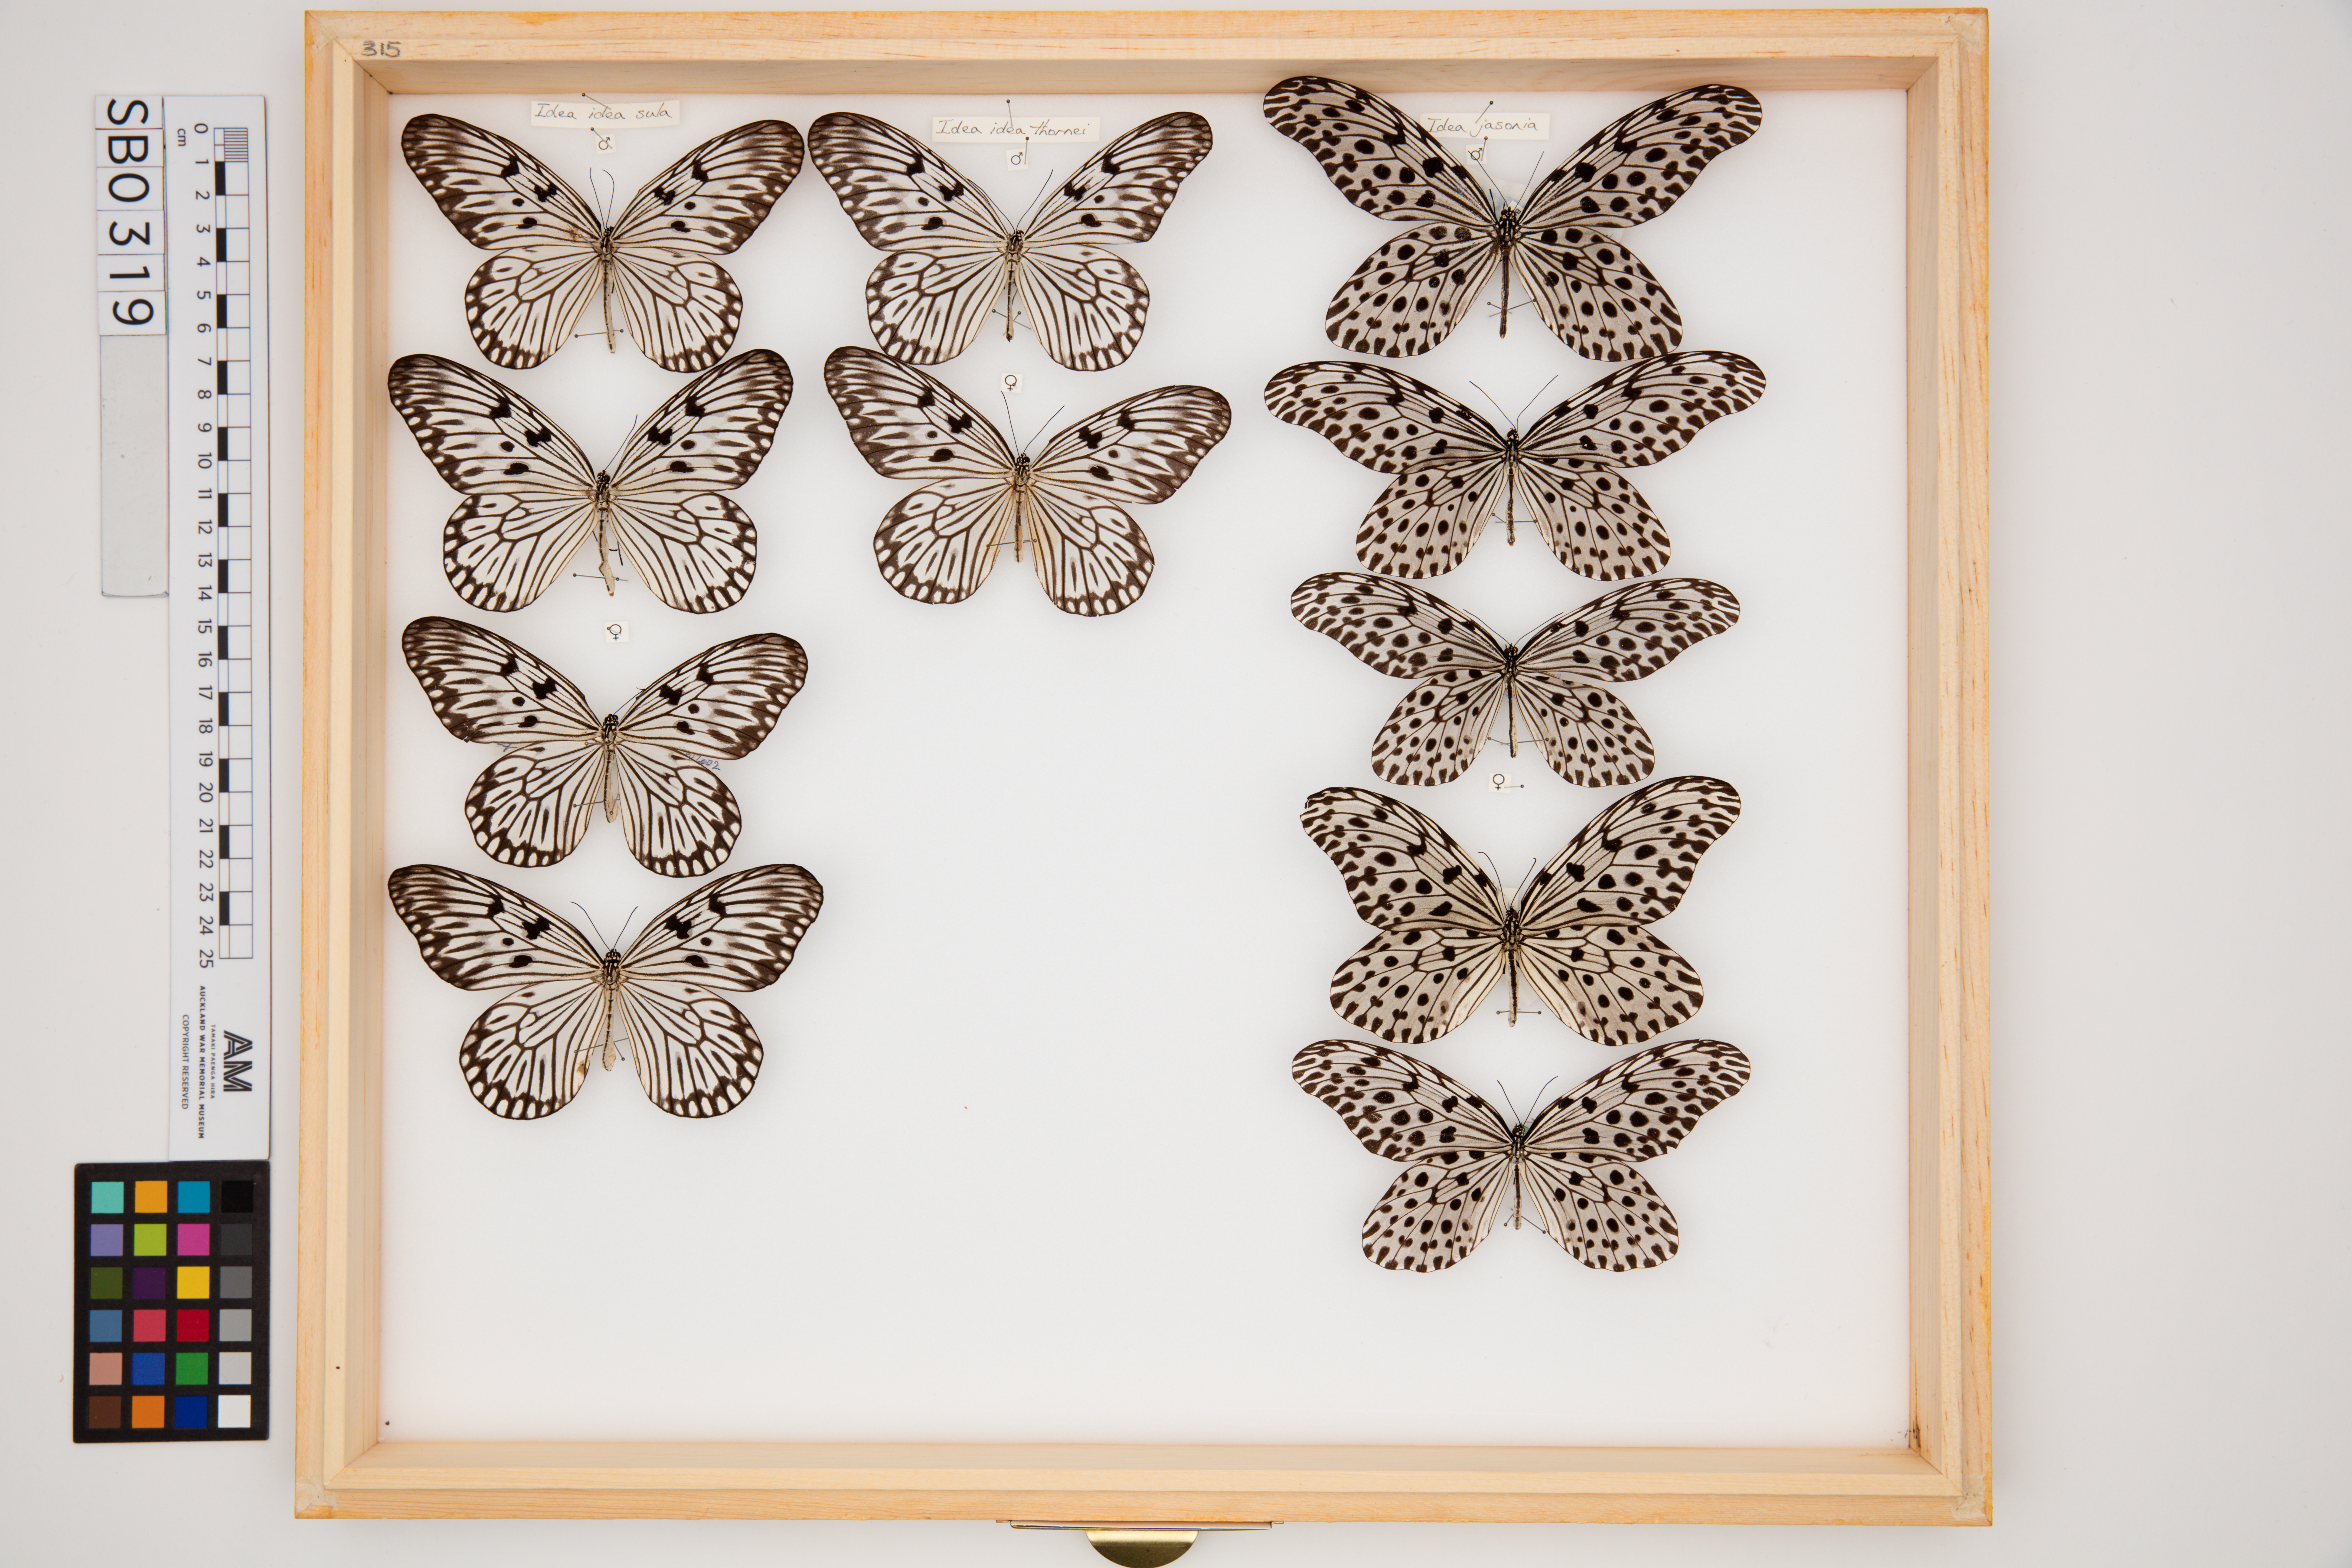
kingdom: Animalia
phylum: Arthropoda
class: Insecta
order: Lepidoptera
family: Nymphalidae
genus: Idea
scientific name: Idea idea
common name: Linnaeus' idea
